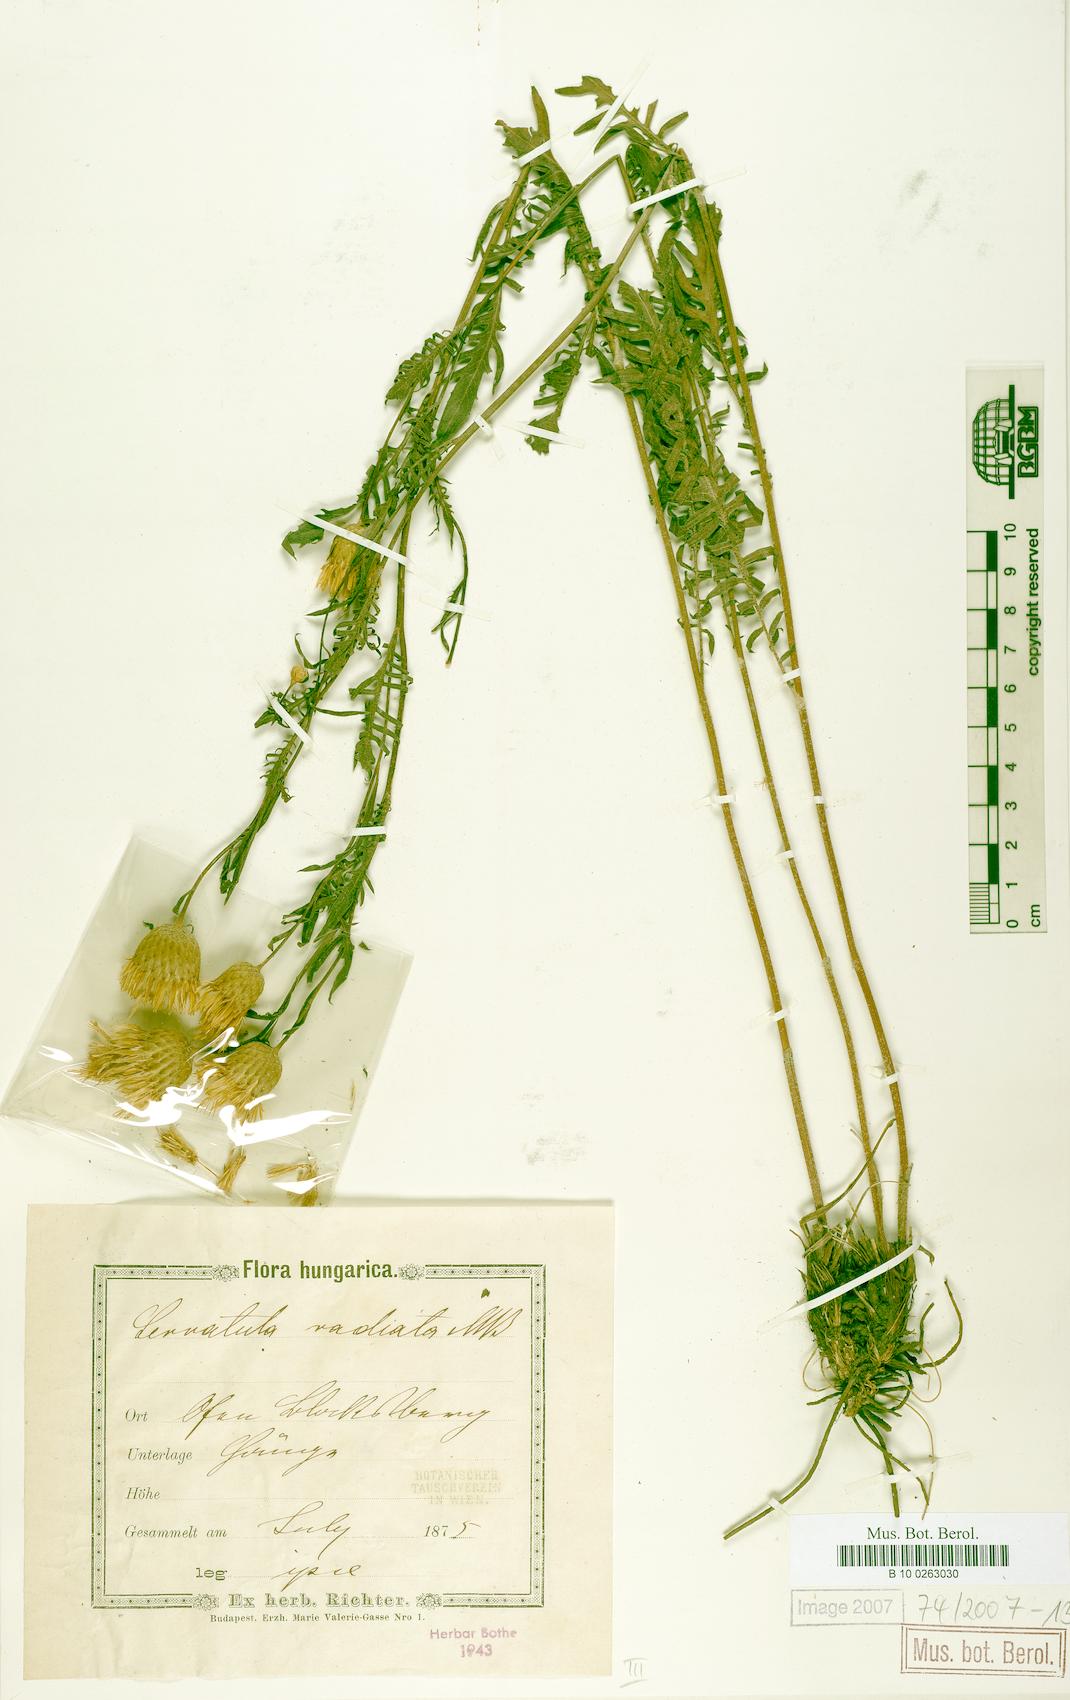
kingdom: Plantae
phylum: Tracheophyta
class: Magnoliopsida
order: Asterales
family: Asteraceae
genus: Klasea
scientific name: Klasea radiata
